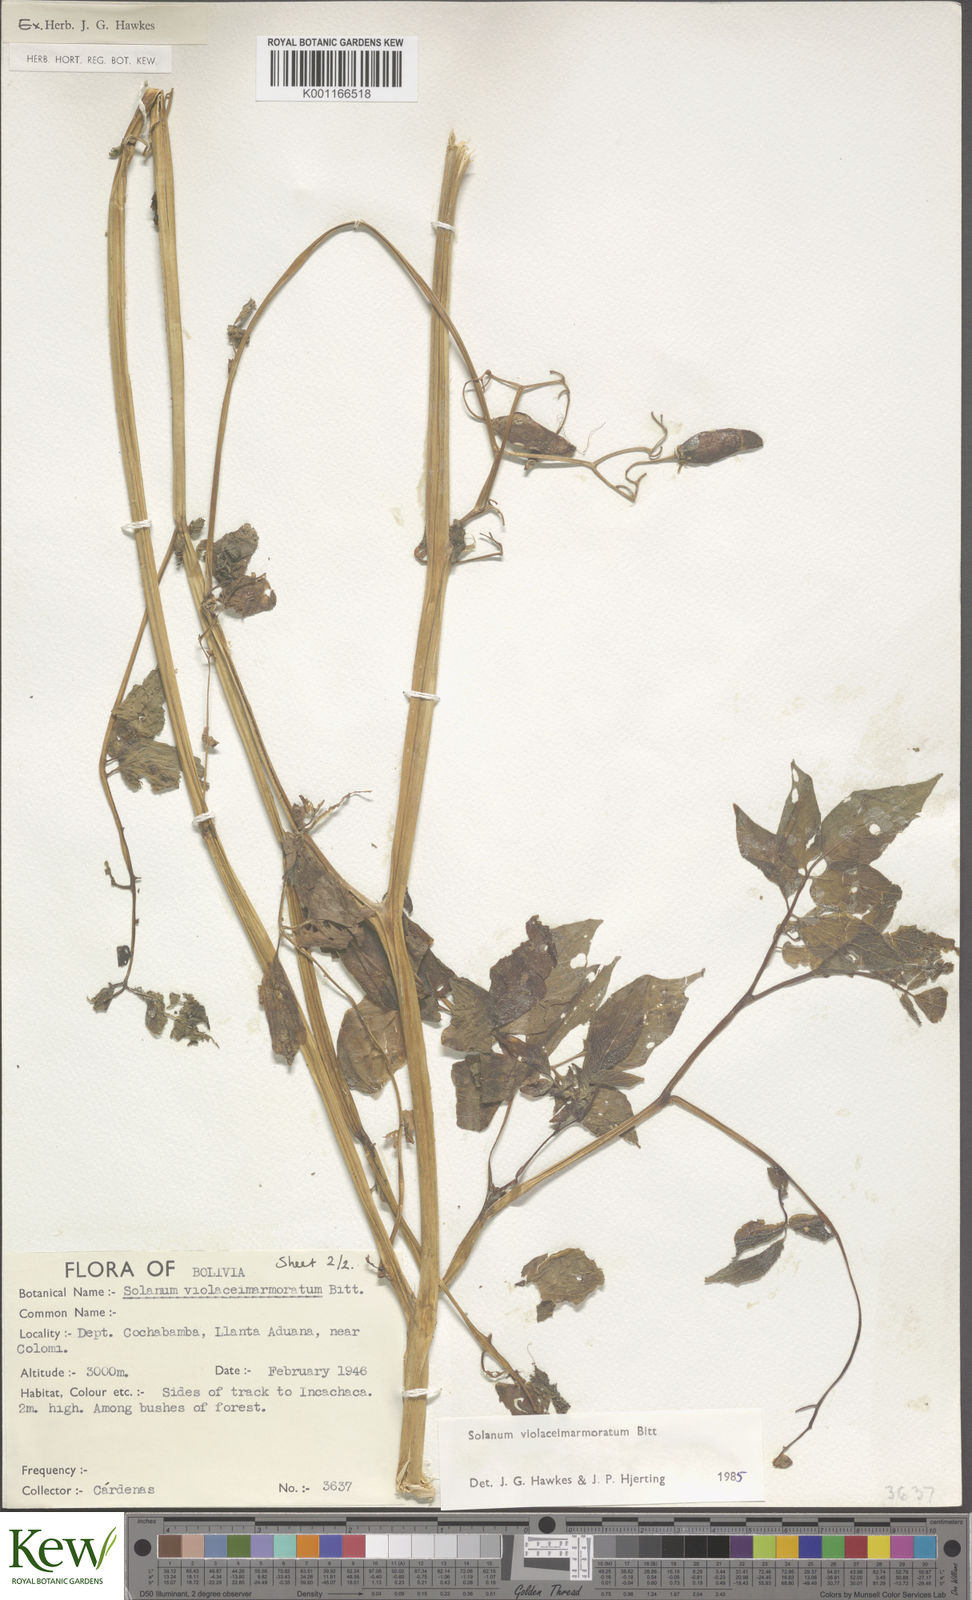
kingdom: Plantae
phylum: Tracheophyta
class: Magnoliopsida
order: Solanales
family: Solanaceae
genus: Solanum
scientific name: Solanum violaceimarmoratum
